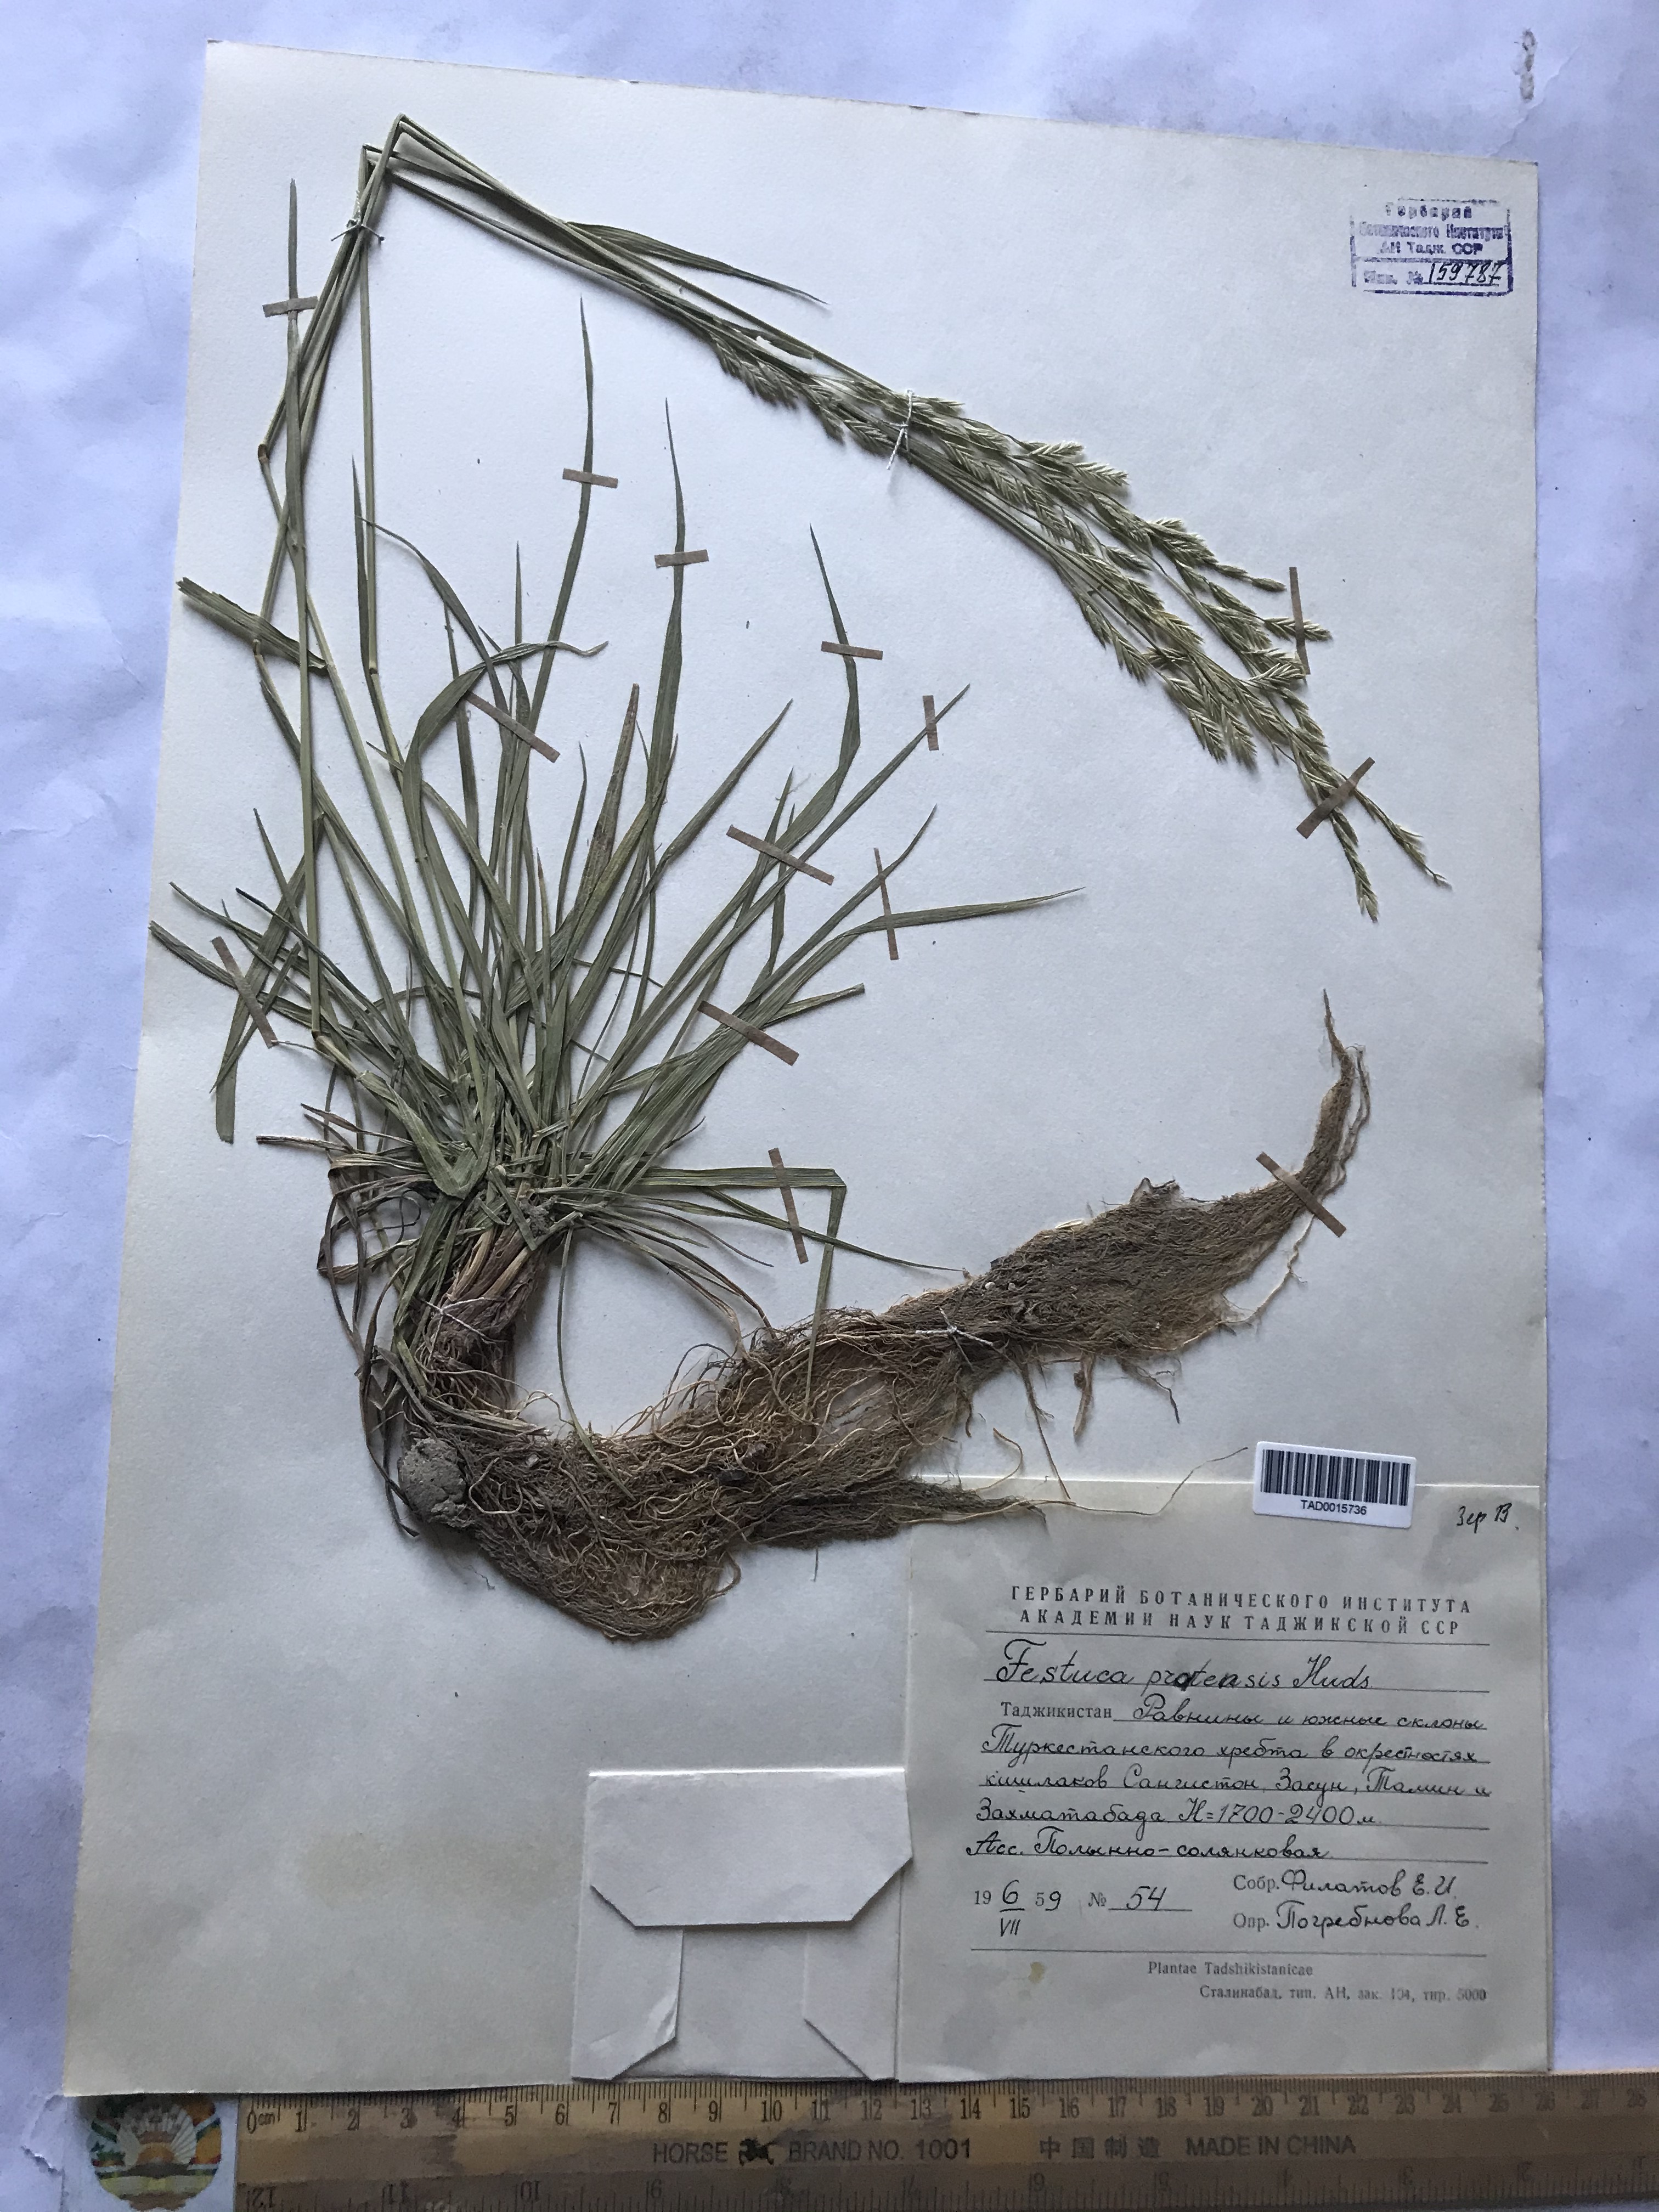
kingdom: Plantae
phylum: Tracheophyta
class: Liliopsida
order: Poales
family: Poaceae
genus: Lolium
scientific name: Lolium pratense
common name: Dover grass
